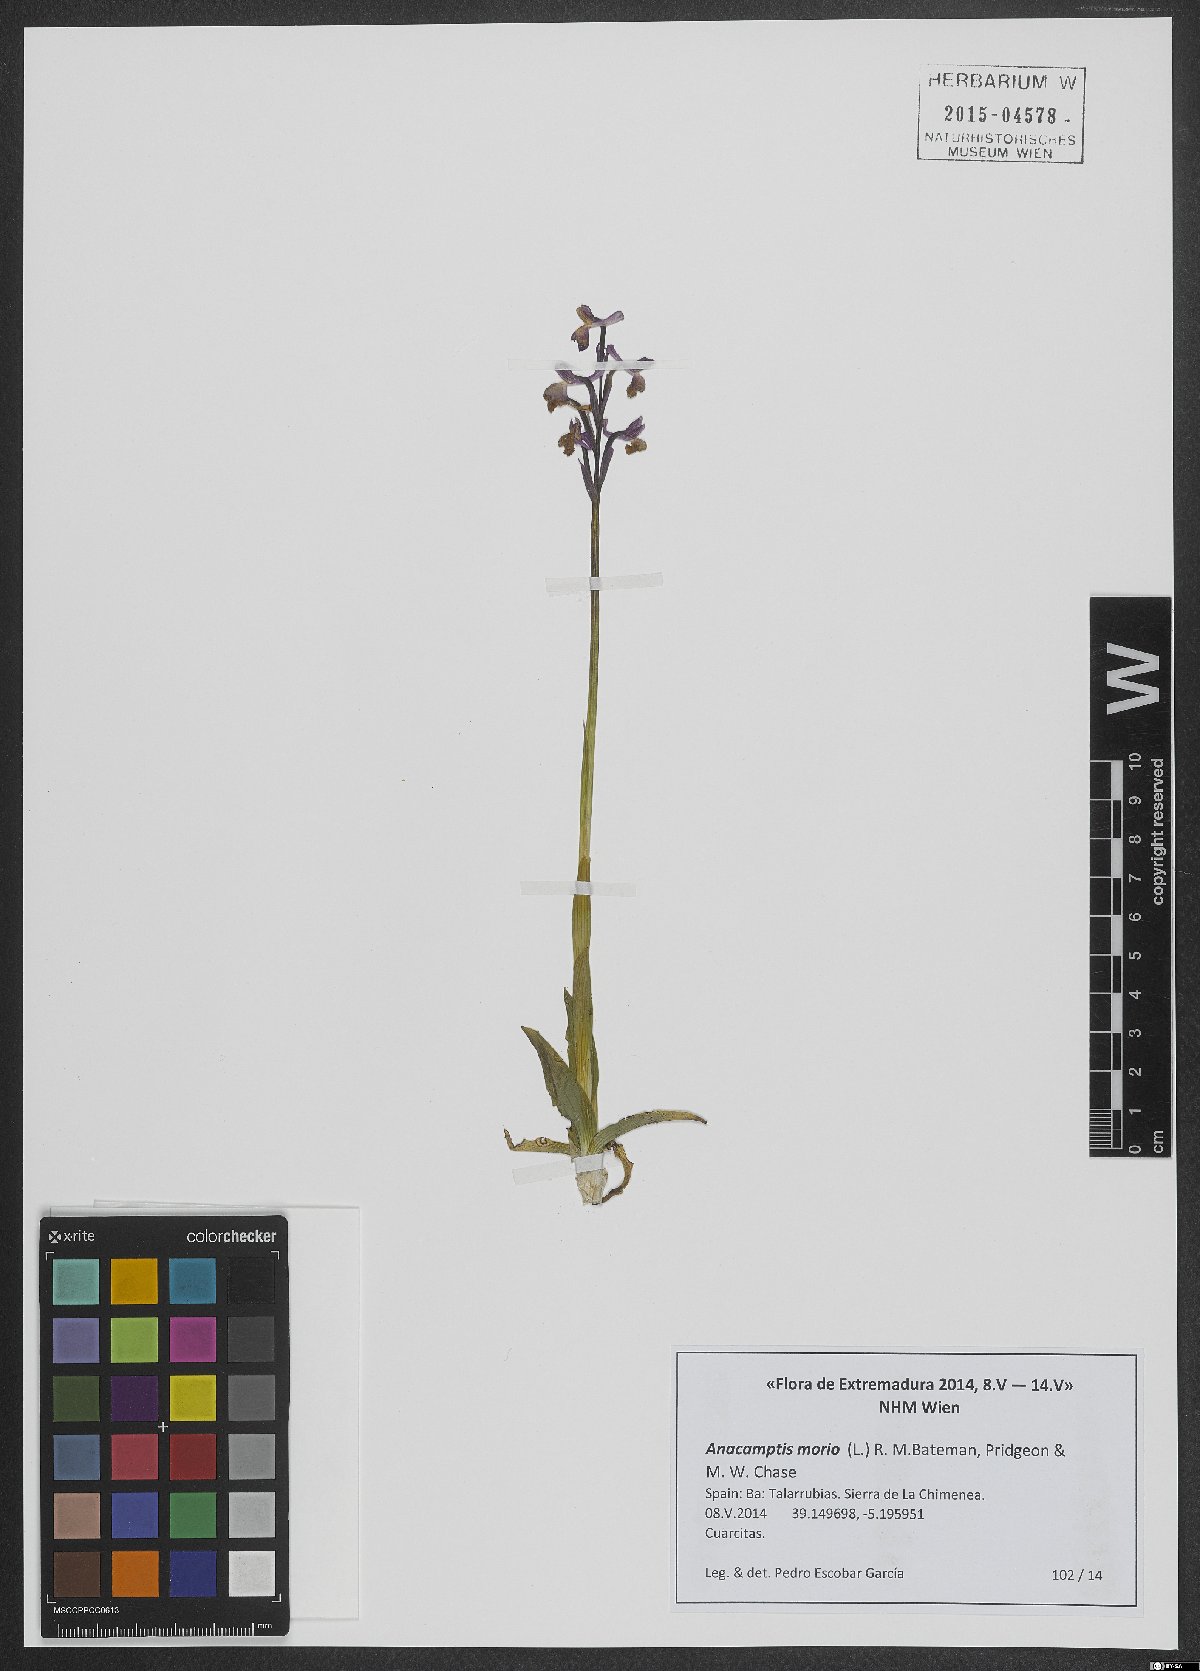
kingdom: Plantae
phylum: Tracheophyta
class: Liliopsida
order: Asparagales
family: Orchidaceae
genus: Anacamptis
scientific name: Anacamptis morio
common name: Green-winged orchid
